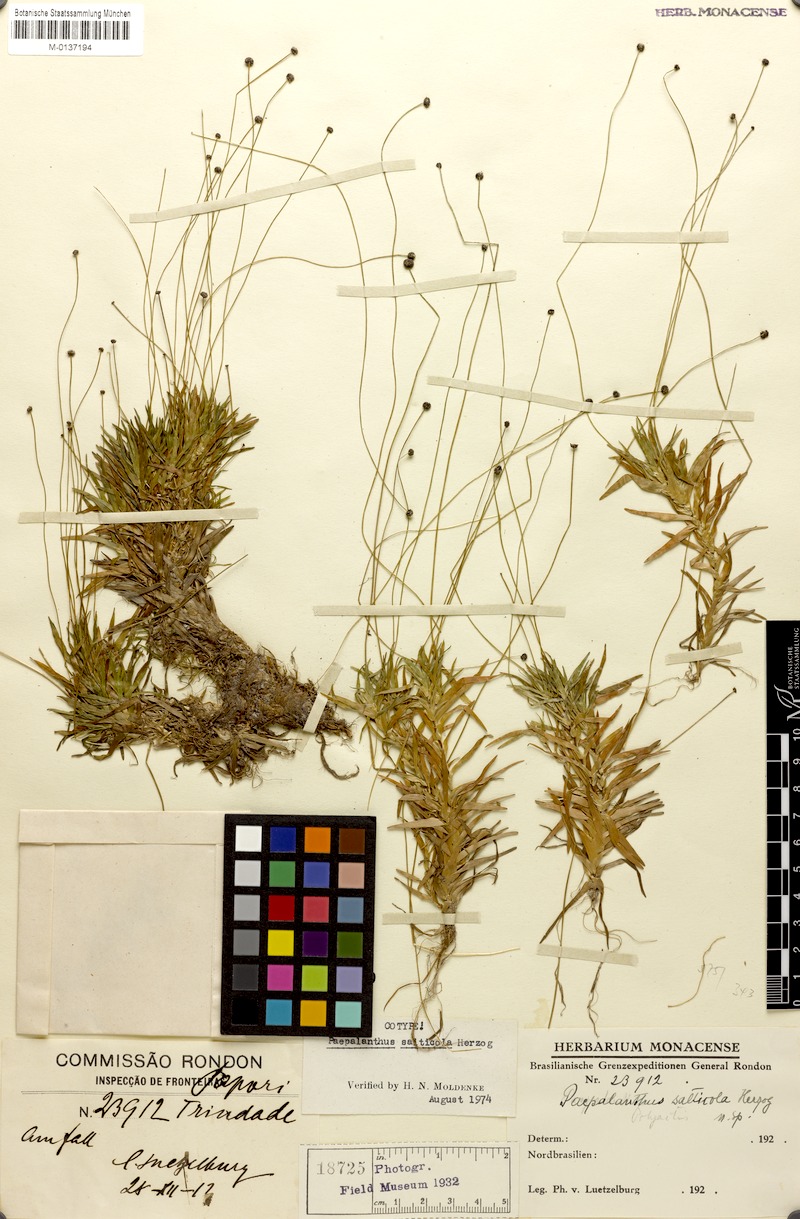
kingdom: Plantae
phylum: Tracheophyta
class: Liliopsida
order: Poales
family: Eriocaulaceae
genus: Paepalanthus
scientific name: Paepalanthus tortilis
